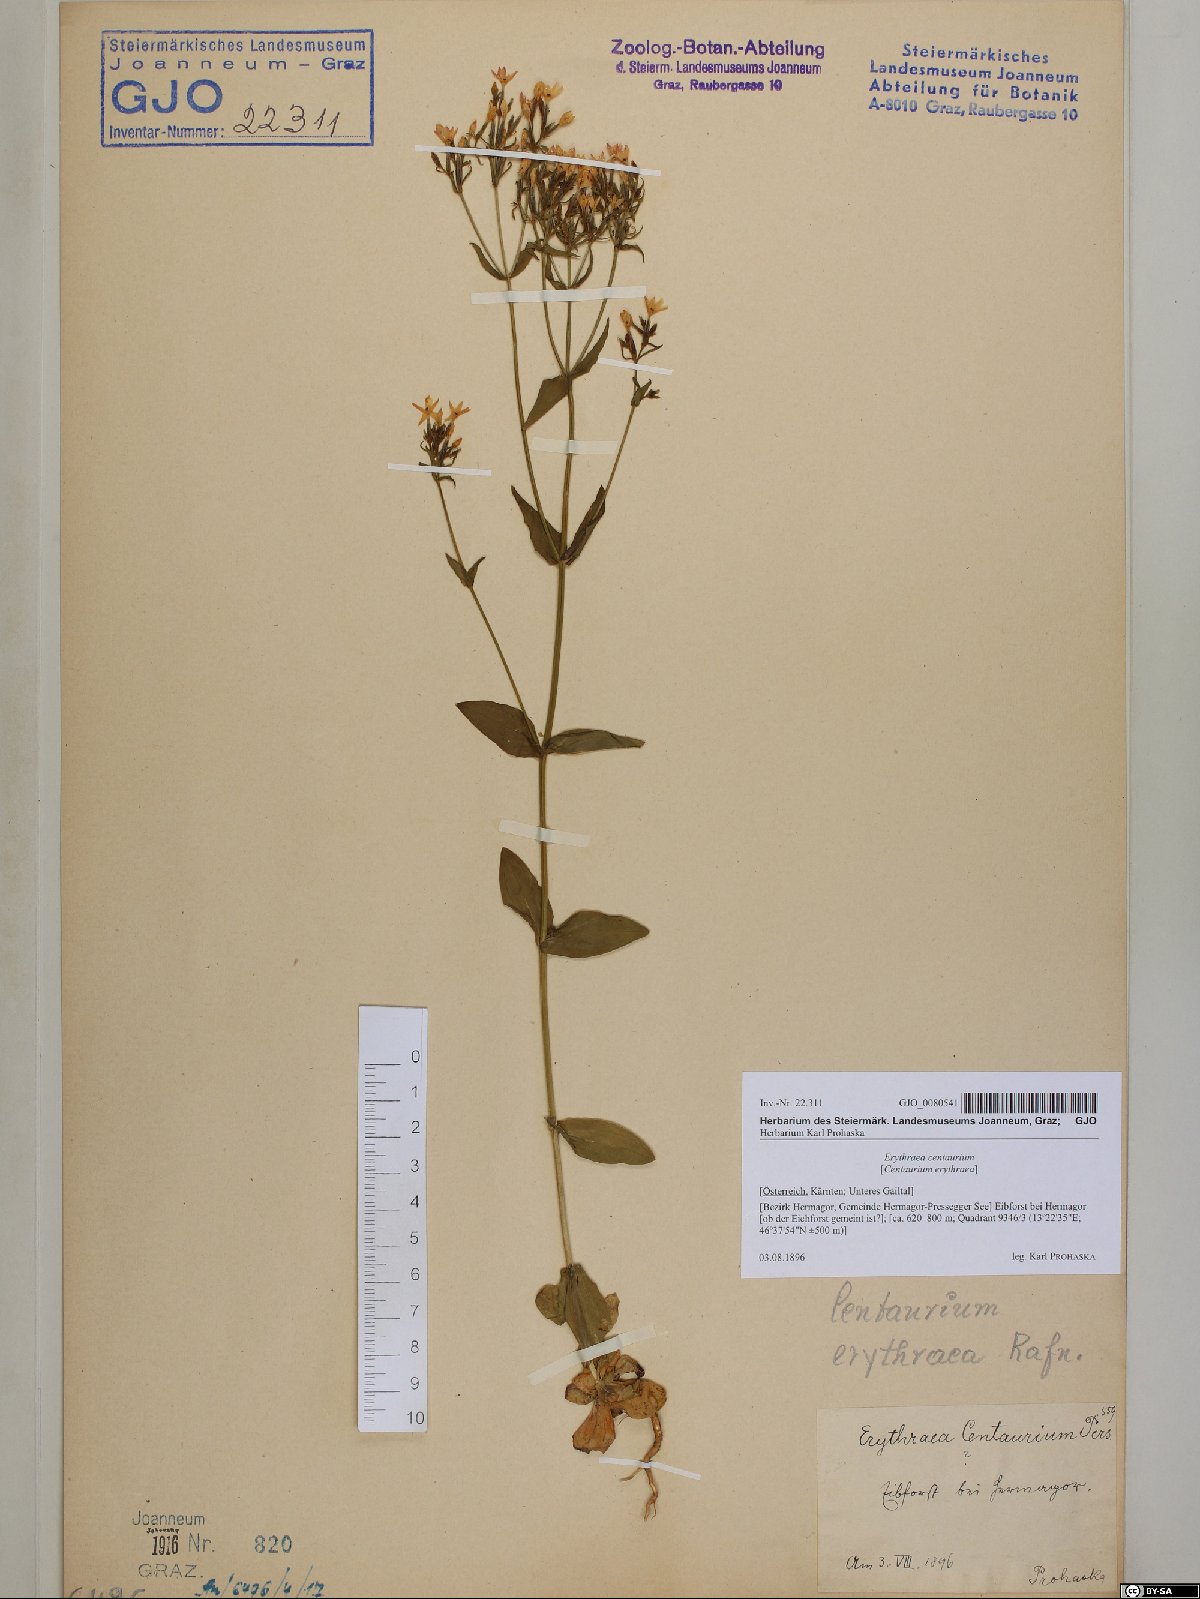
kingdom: Plantae
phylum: Tracheophyta
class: Magnoliopsida
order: Gentianales
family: Gentianaceae
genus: Centaurium
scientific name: Centaurium erythraea
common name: Common centaury
